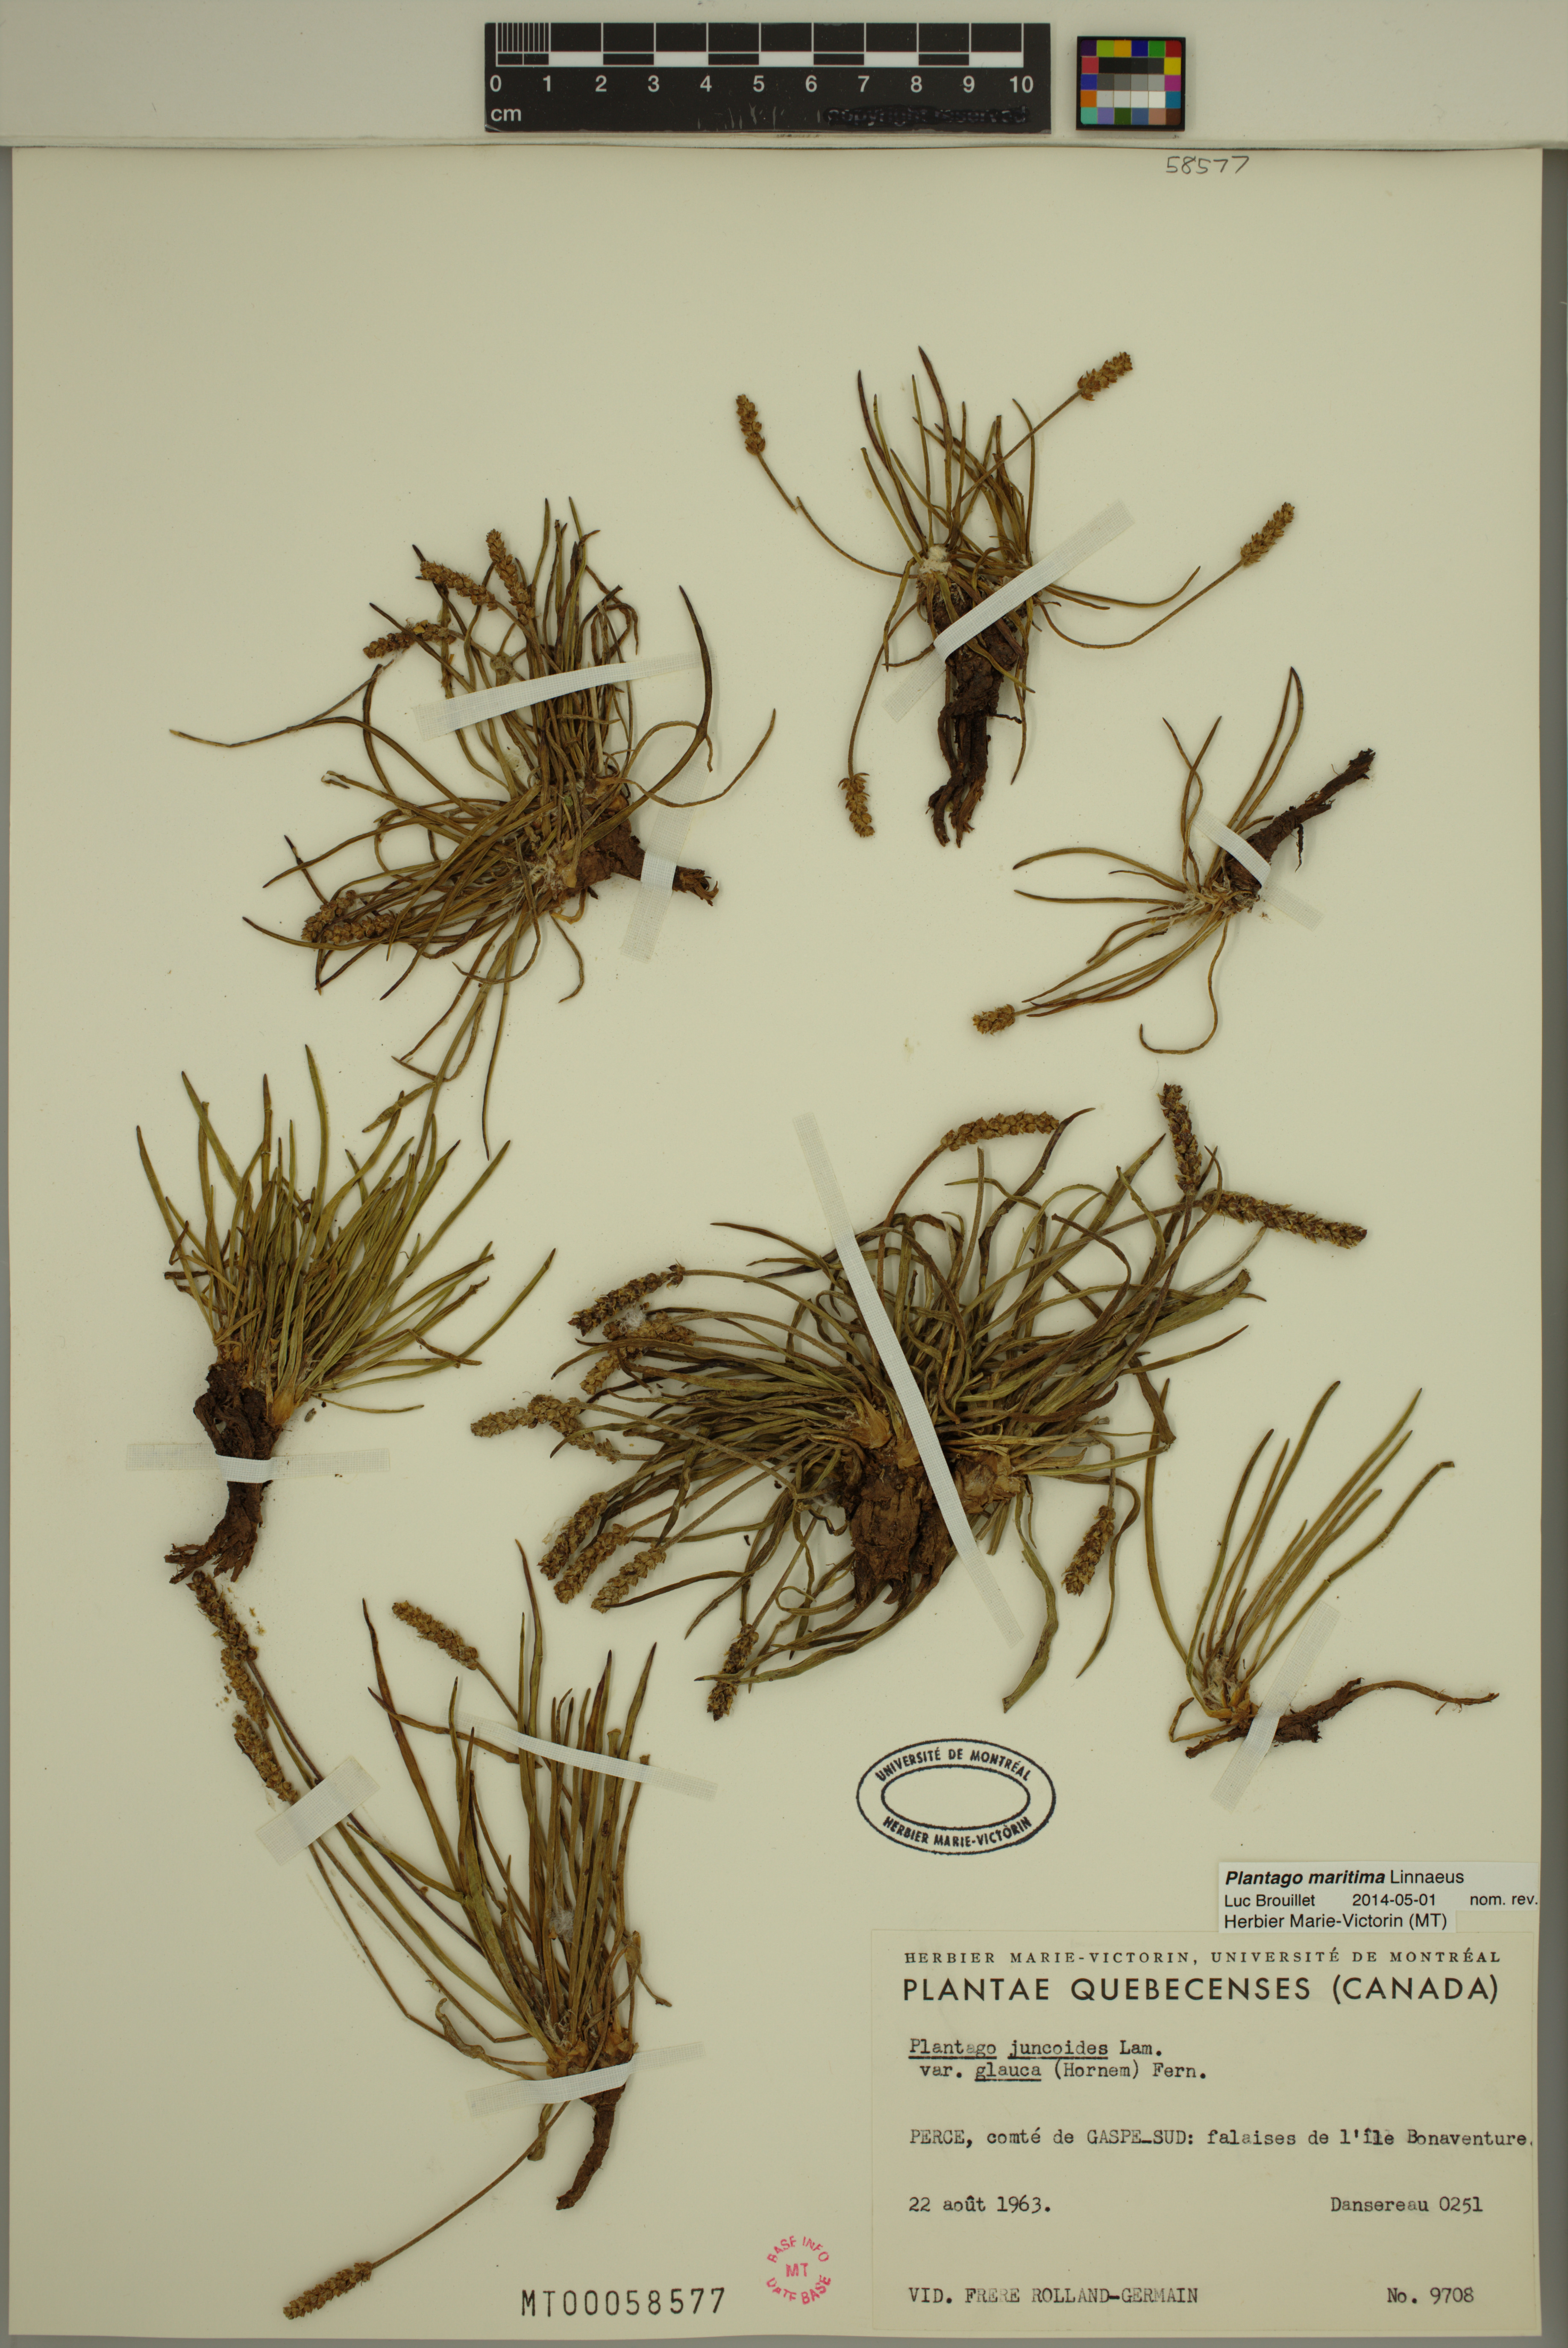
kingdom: Plantae
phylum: Tracheophyta
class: Magnoliopsida
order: Lamiales
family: Plantaginaceae
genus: Plantago
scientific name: Plantago maritima
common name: Sea plantain
